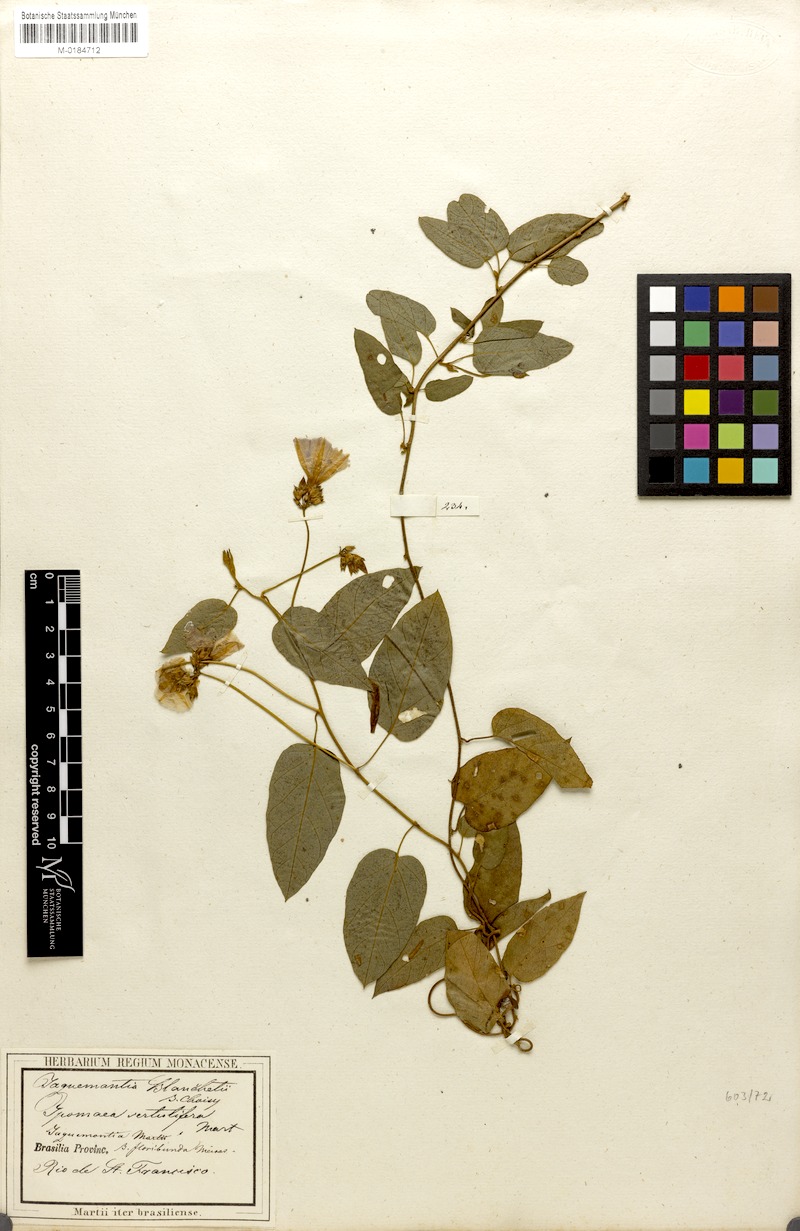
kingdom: Plantae
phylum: Tracheophyta
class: Magnoliopsida
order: Solanales
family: Convolvulaceae
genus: Jacquemontia
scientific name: Jacquemontia blanchetii
